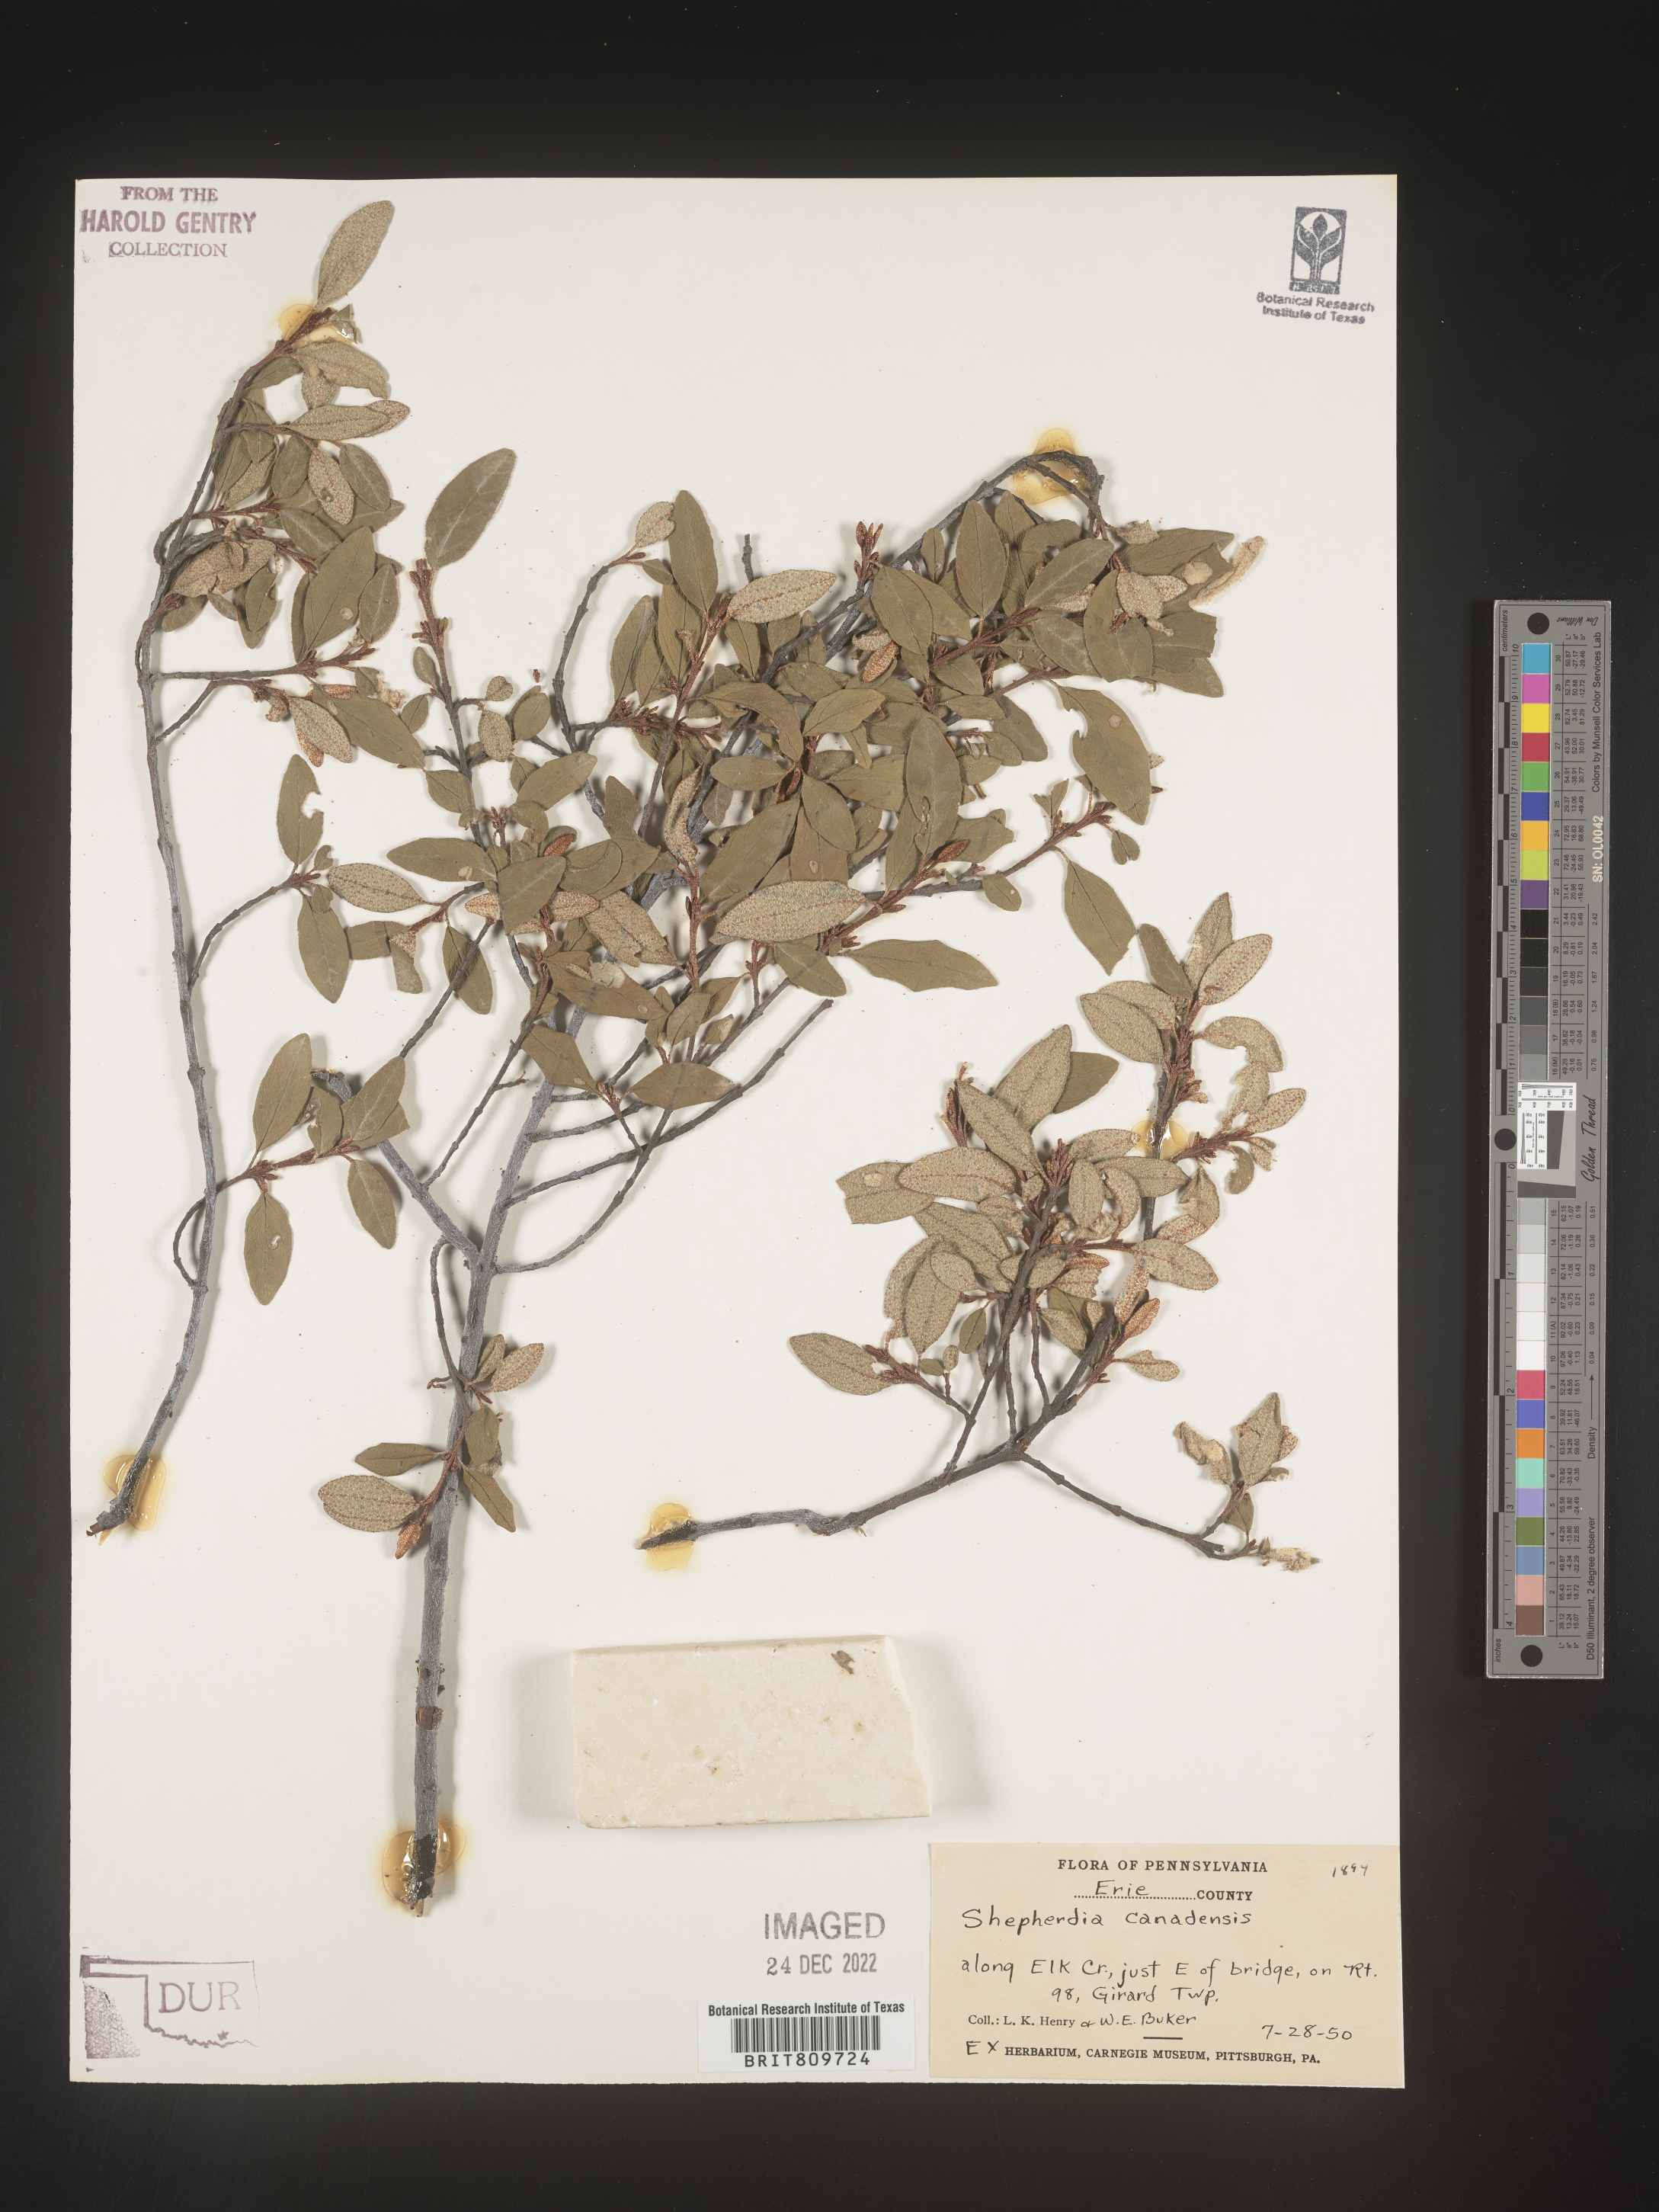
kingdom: Plantae
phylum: Tracheophyta
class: Magnoliopsida
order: Rosales
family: Elaeagnaceae
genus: Shepherdia
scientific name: Shepherdia canadensis
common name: Soapberry
